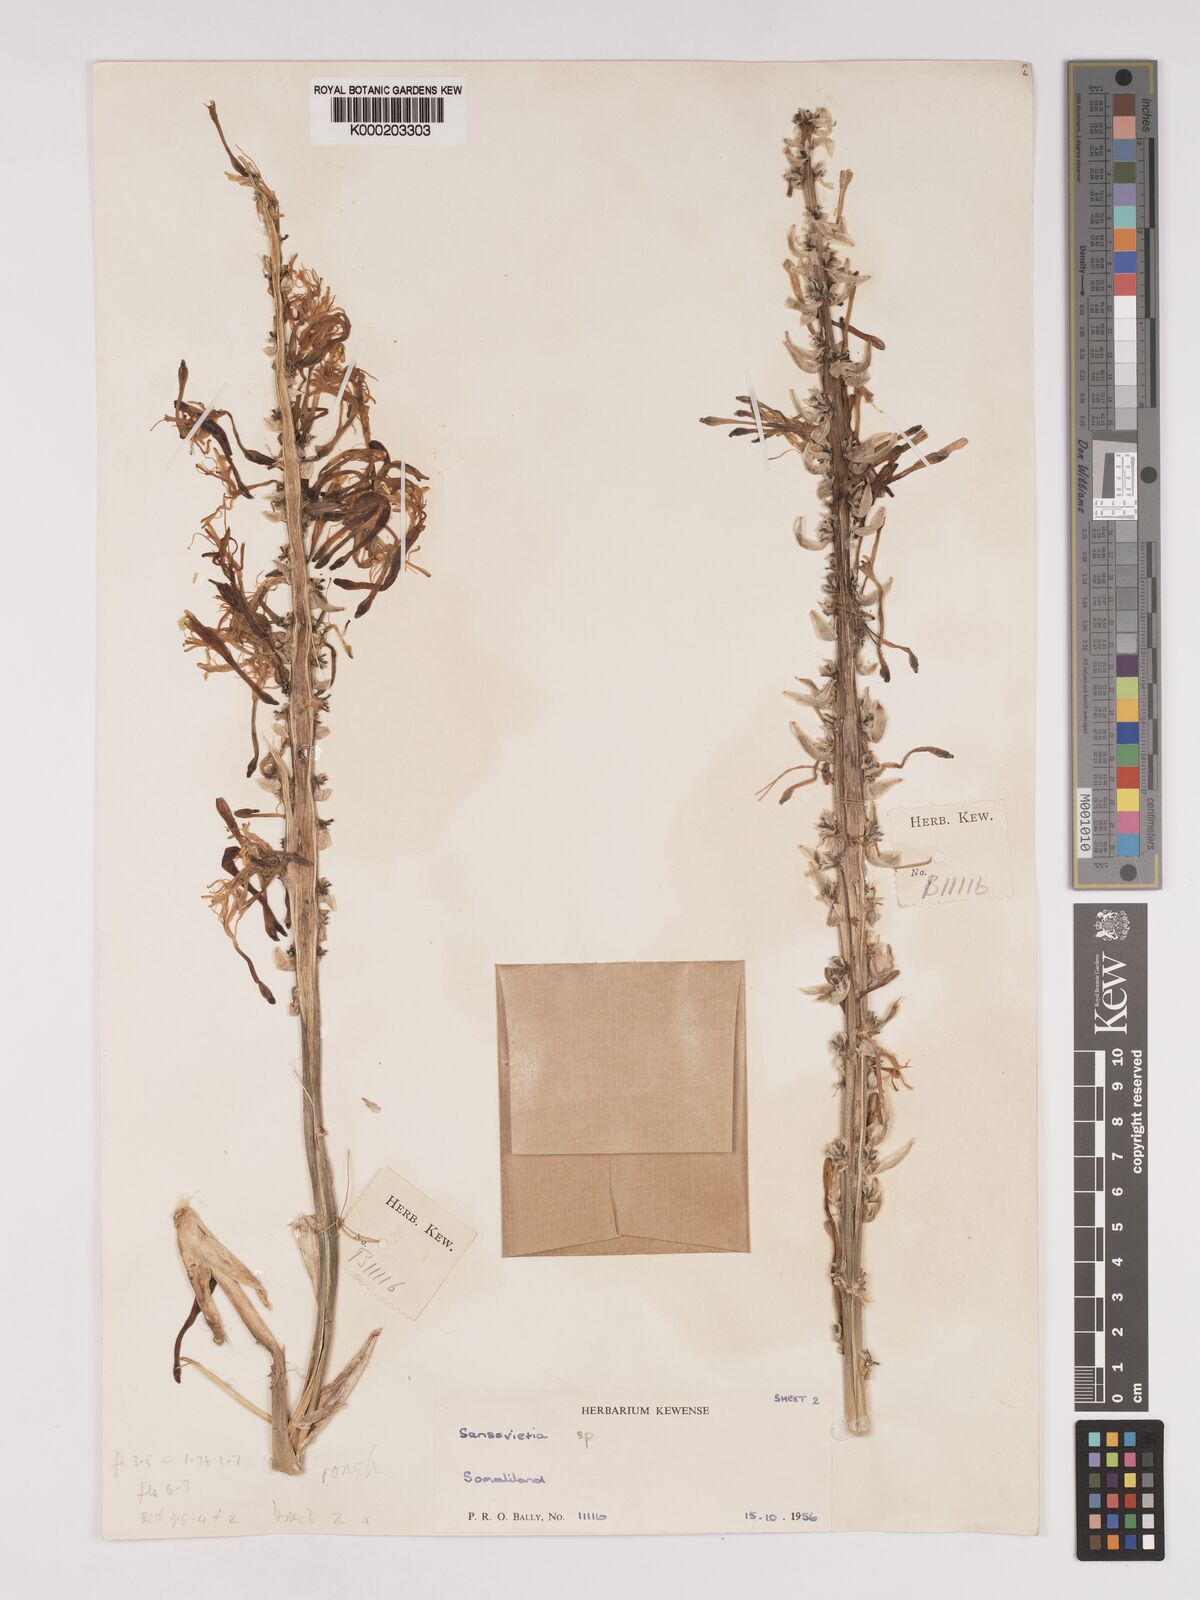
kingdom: Plantae
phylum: Tracheophyta
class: Liliopsida
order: Asparagales
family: Asparagaceae
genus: Dracaena
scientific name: Dracaena forskaliana
